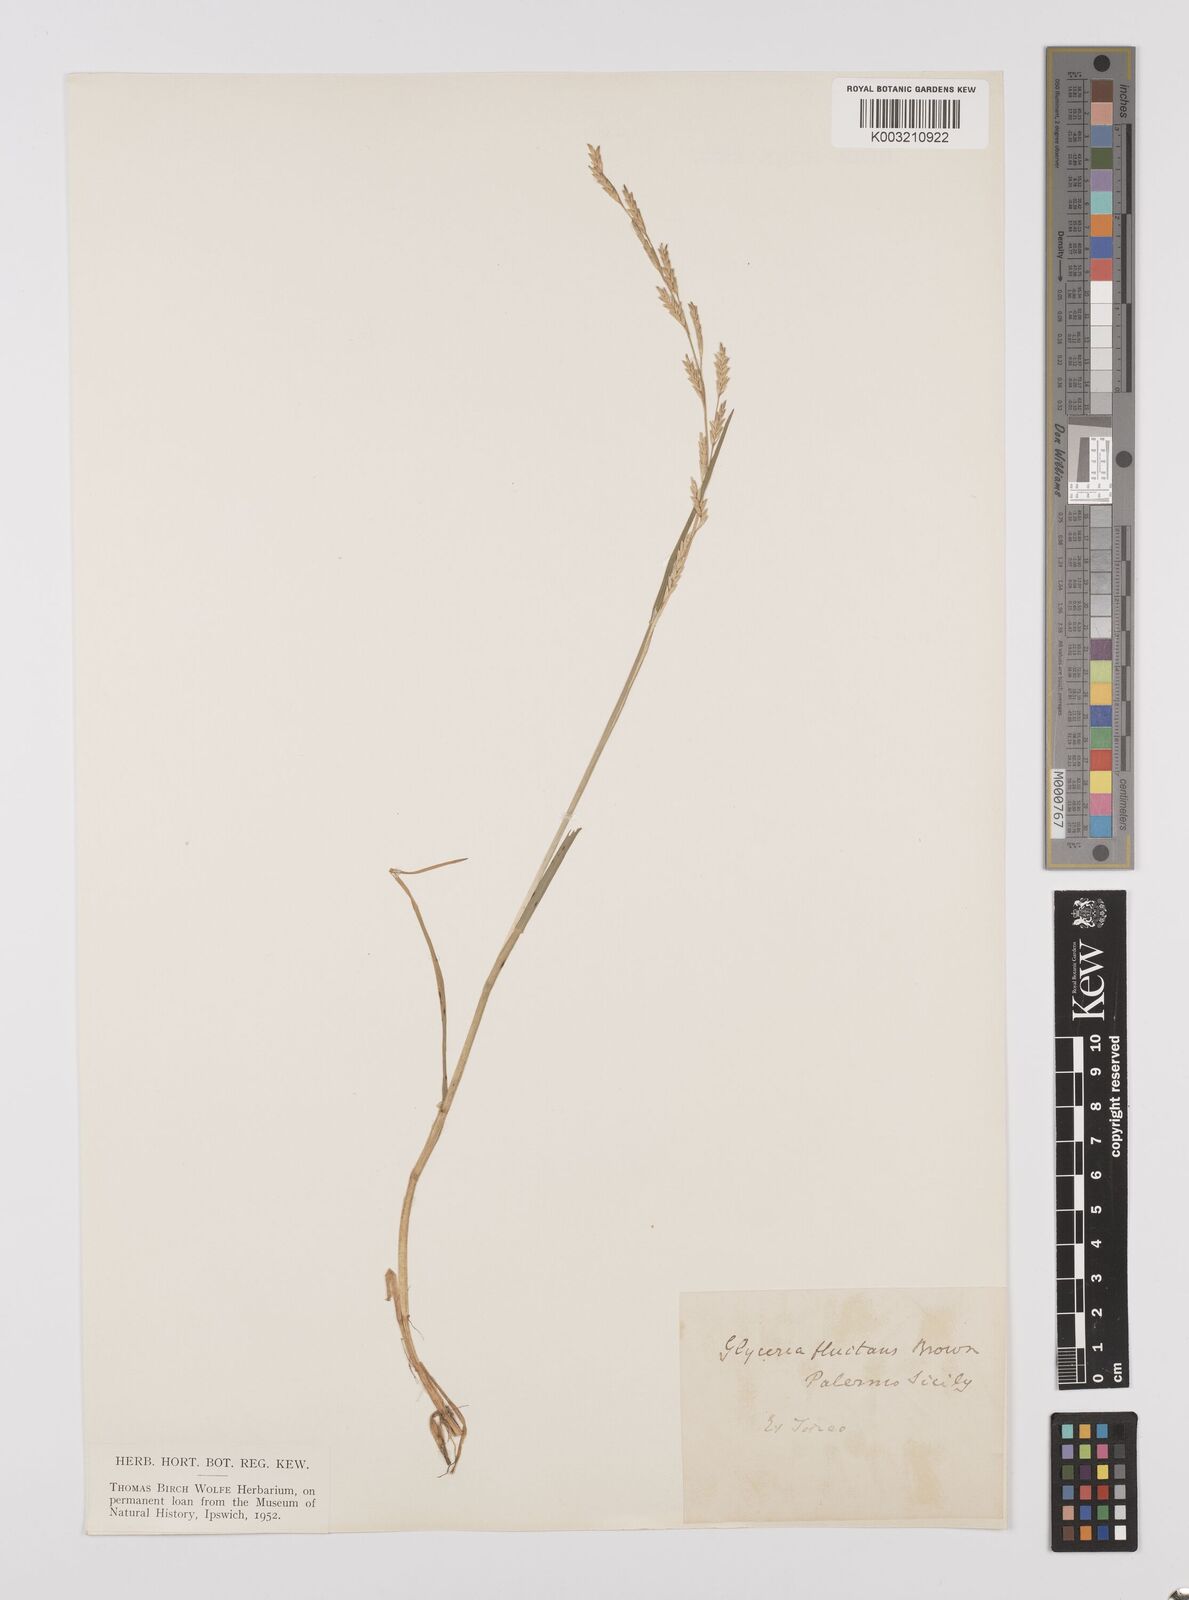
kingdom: Plantae
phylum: Tracheophyta
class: Liliopsida
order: Poales
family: Poaceae
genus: Glyceria
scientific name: Glyceria spicata
